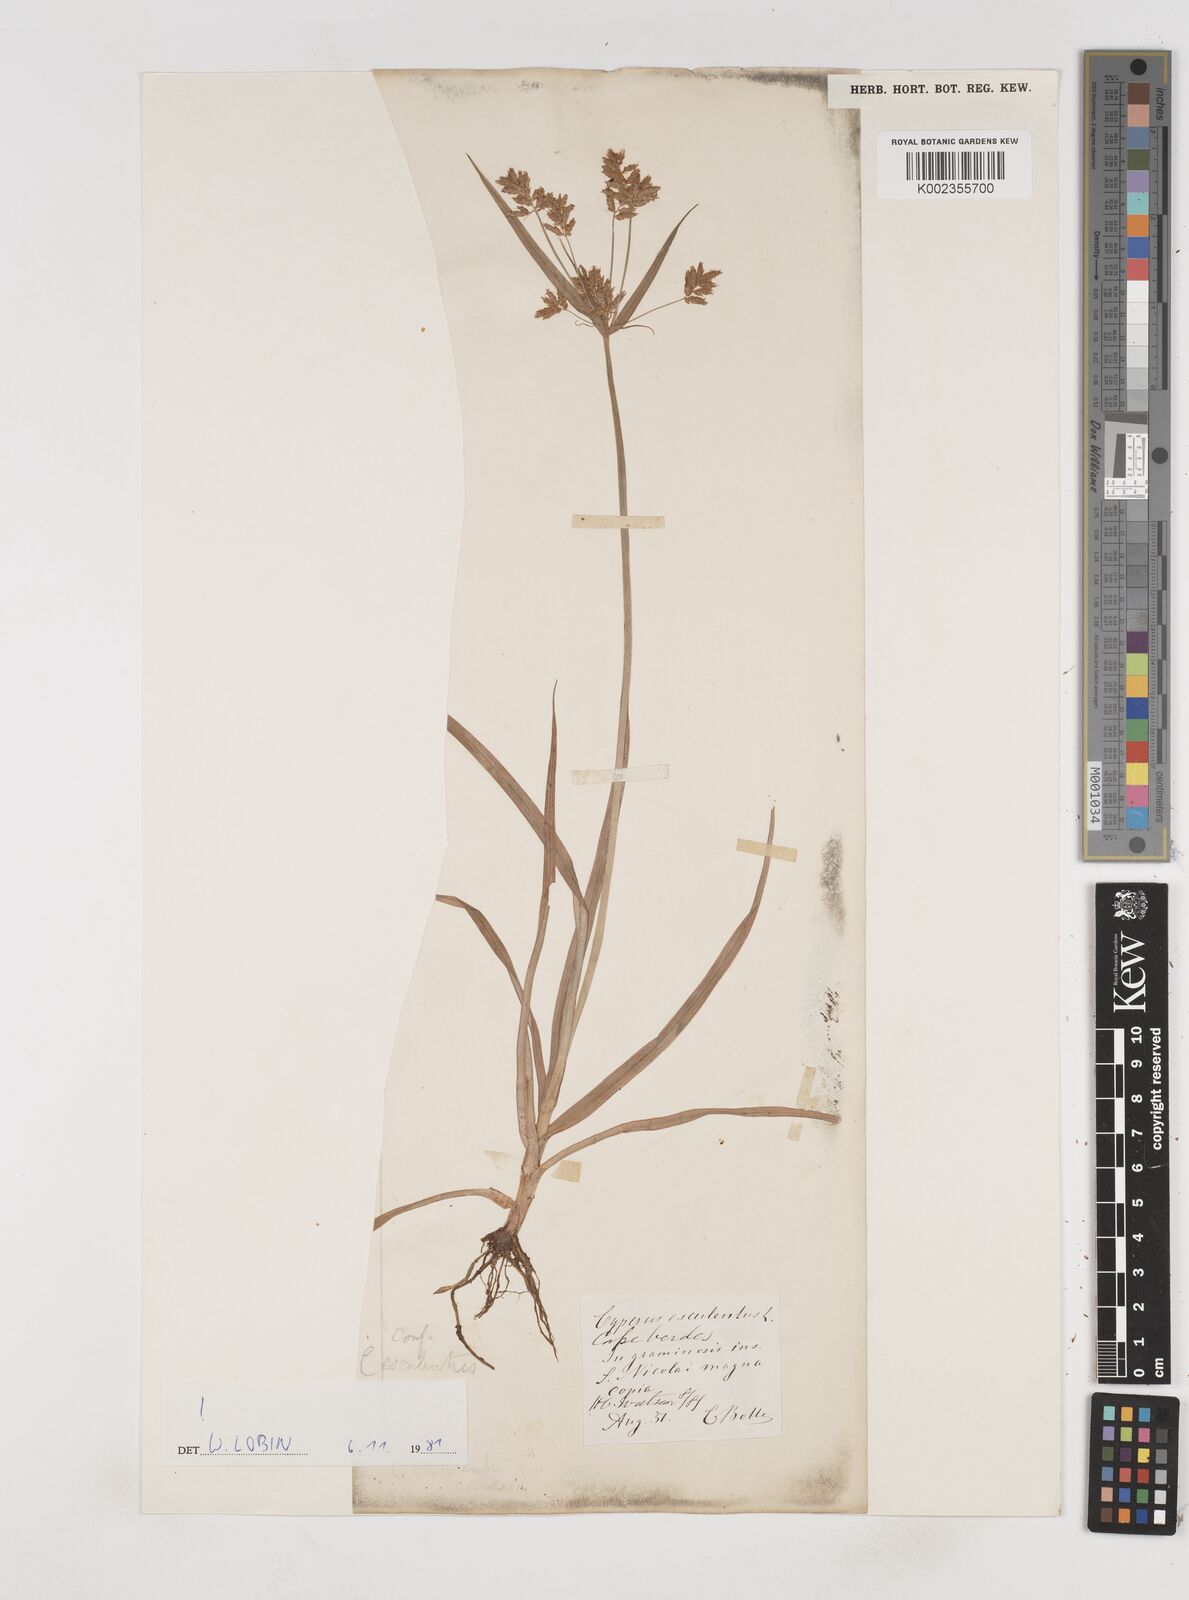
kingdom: Plantae
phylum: Tracheophyta
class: Liliopsida
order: Poales
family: Cyperaceae
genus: Cyperus
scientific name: Cyperus esculentus
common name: Yellow nutsedge
